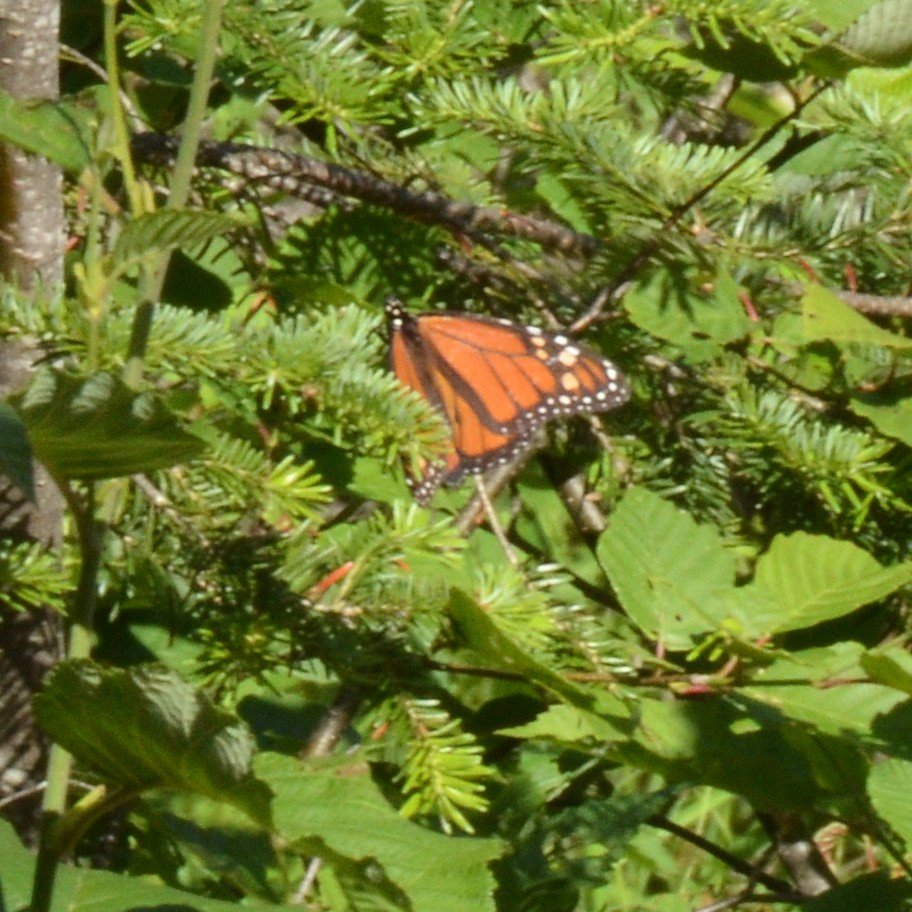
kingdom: Animalia
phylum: Arthropoda
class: Insecta
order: Lepidoptera
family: Nymphalidae
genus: Danaus
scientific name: Danaus plexippus
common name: Monarch
